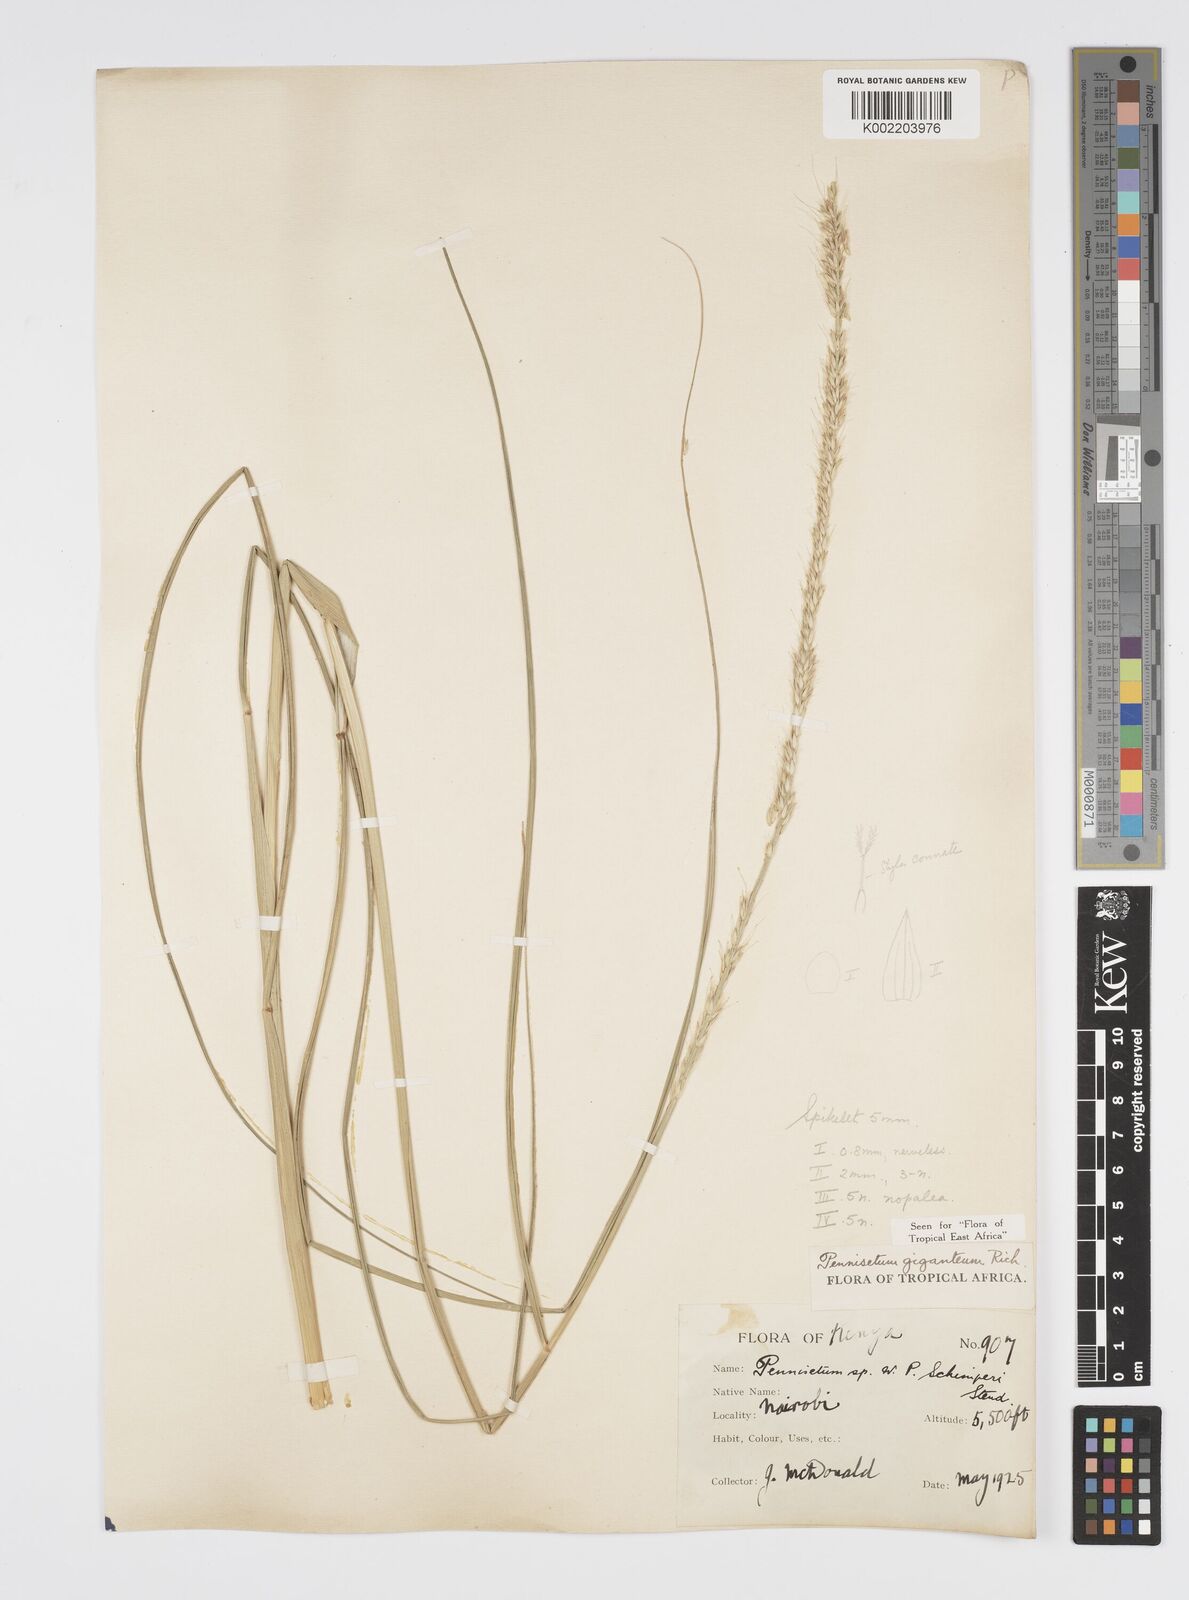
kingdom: Plantae
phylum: Tracheophyta
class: Liliopsida
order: Poales
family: Poaceae
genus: Cenchrus
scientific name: Cenchrus caudatus
